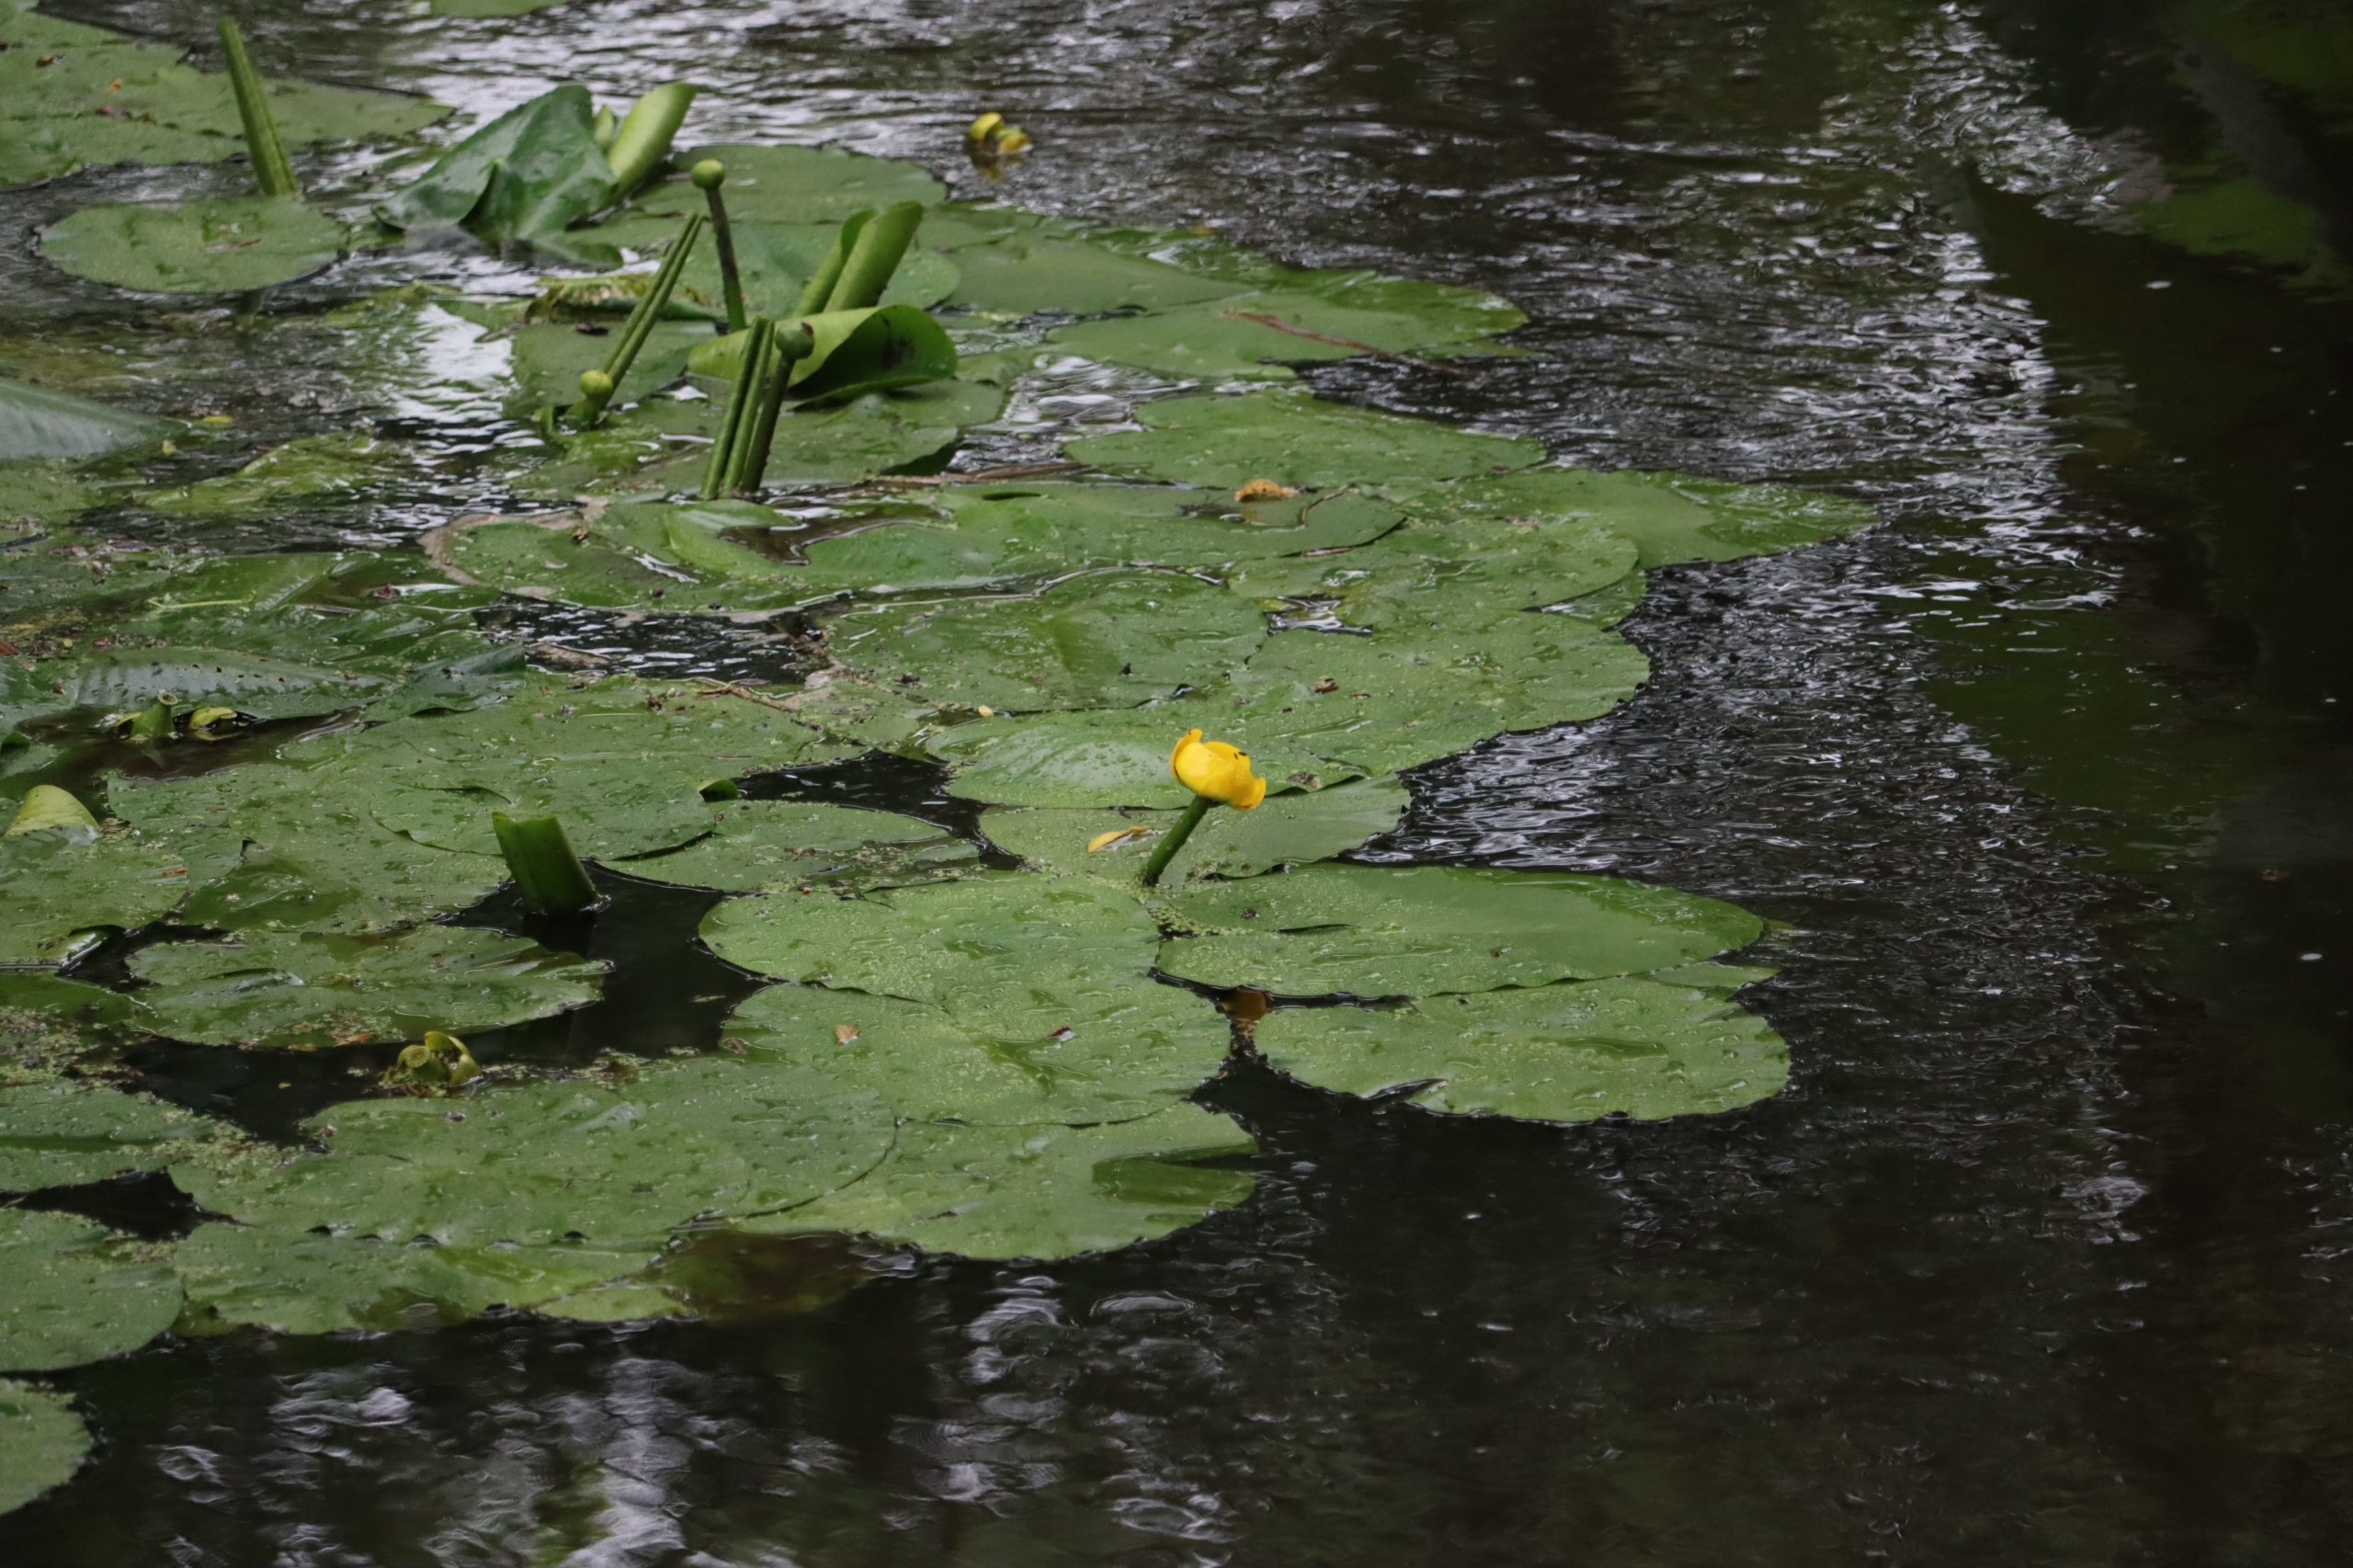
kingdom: Plantae
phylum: Tracheophyta
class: Magnoliopsida
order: Nymphaeales
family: Nymphaeaceae
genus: Nuphar
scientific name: Nuphar lutea
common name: Gul åkande
